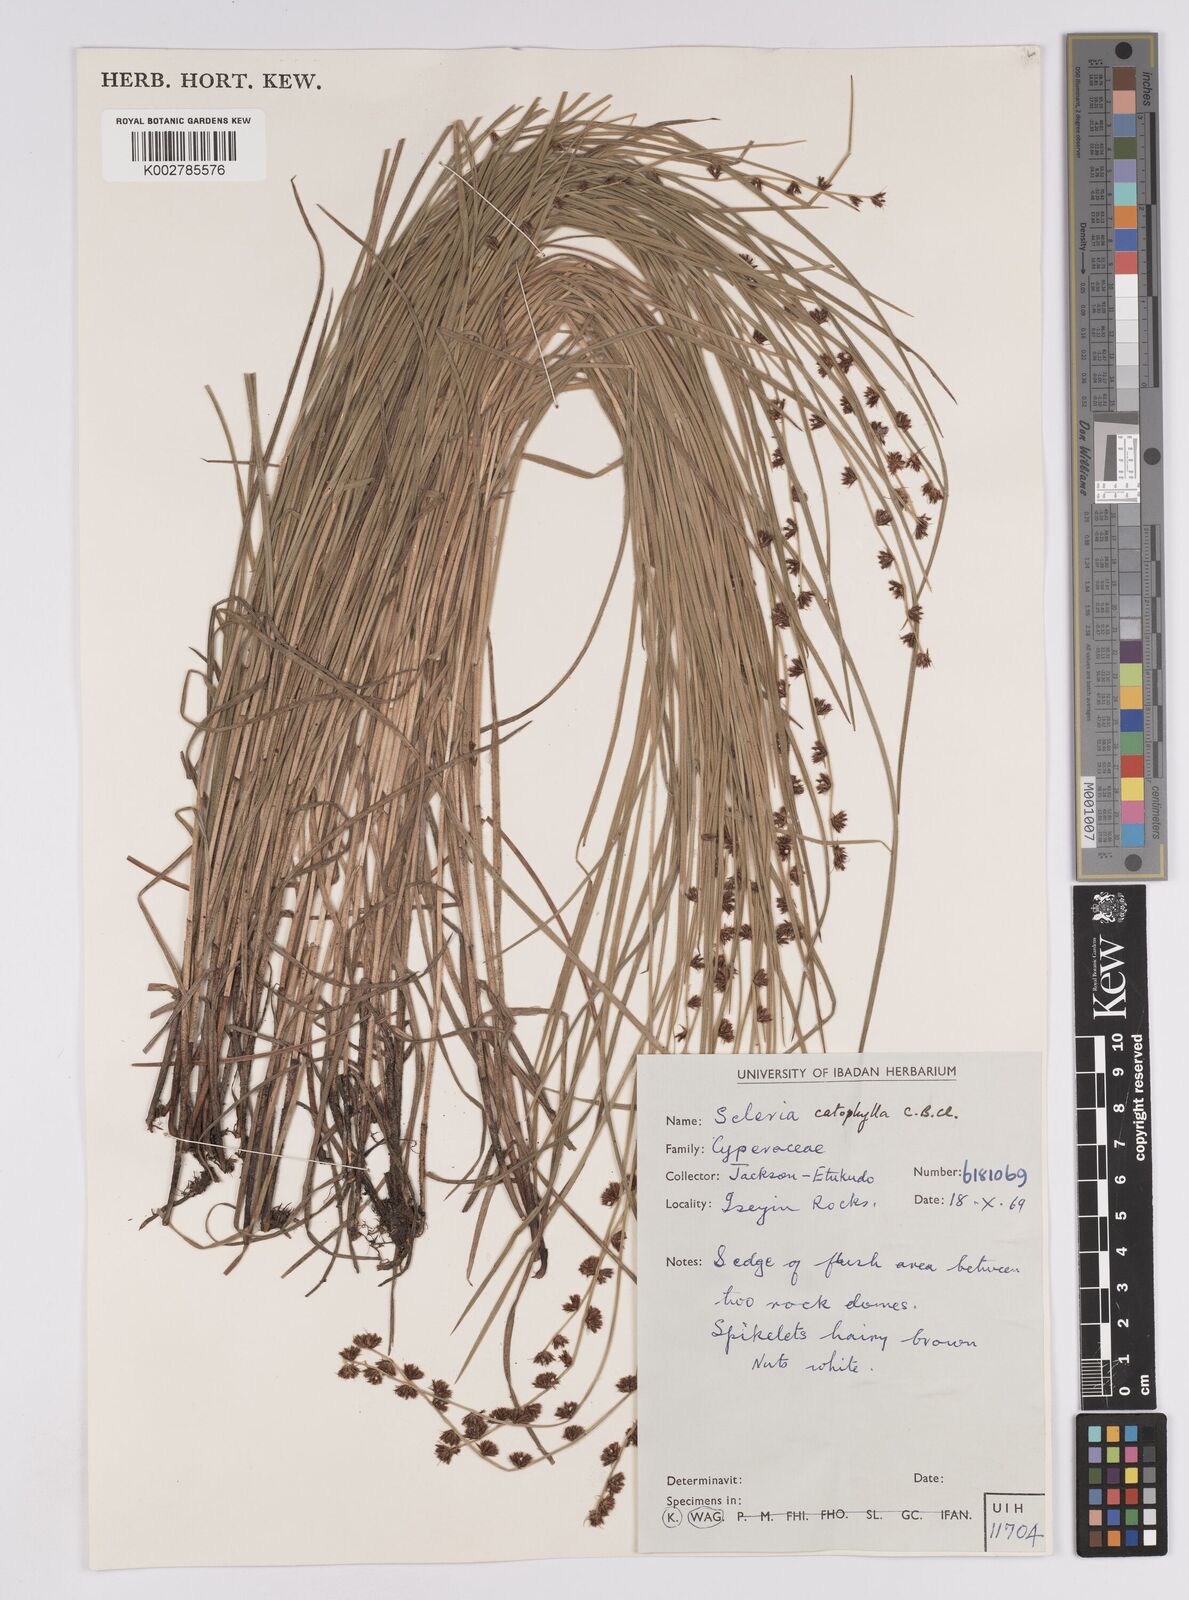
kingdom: Plantae
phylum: Tracheophyta
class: Liliopsida
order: Poales
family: Cyperaceae
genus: Scleria
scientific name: Scleria distans
